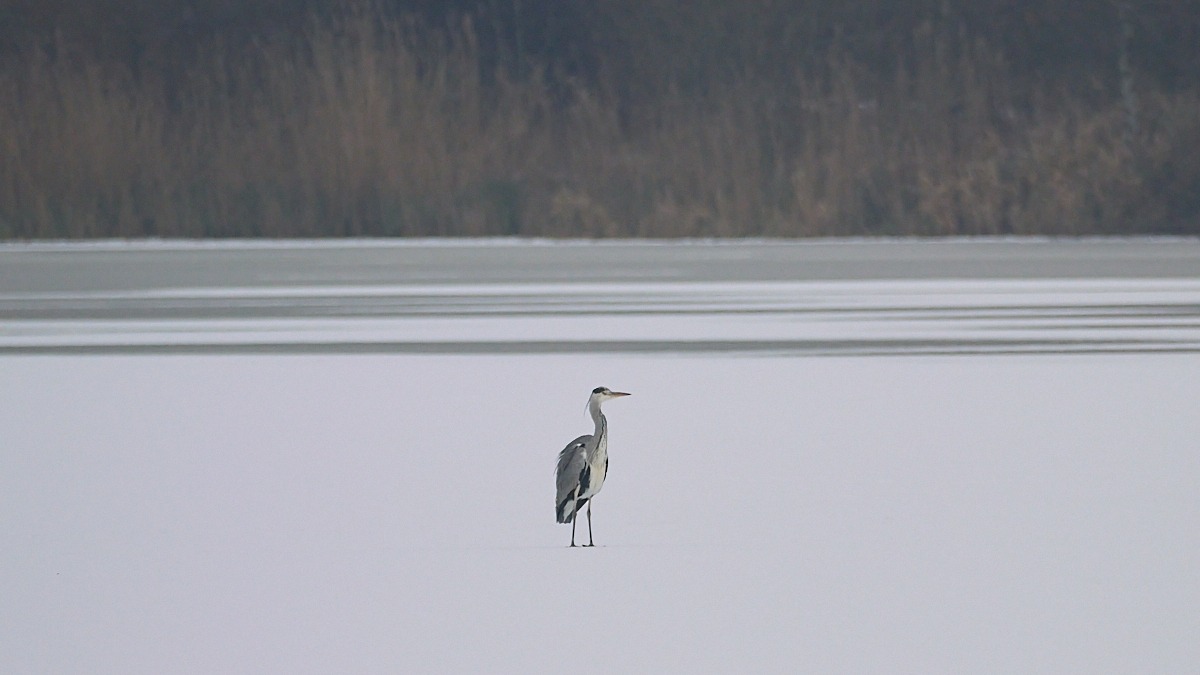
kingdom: Animalia
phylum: Chordata
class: Aves
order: Pelecaniformes
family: Ardeidae
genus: Ardea
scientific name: Ardea cinerea
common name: Fiskehejre
